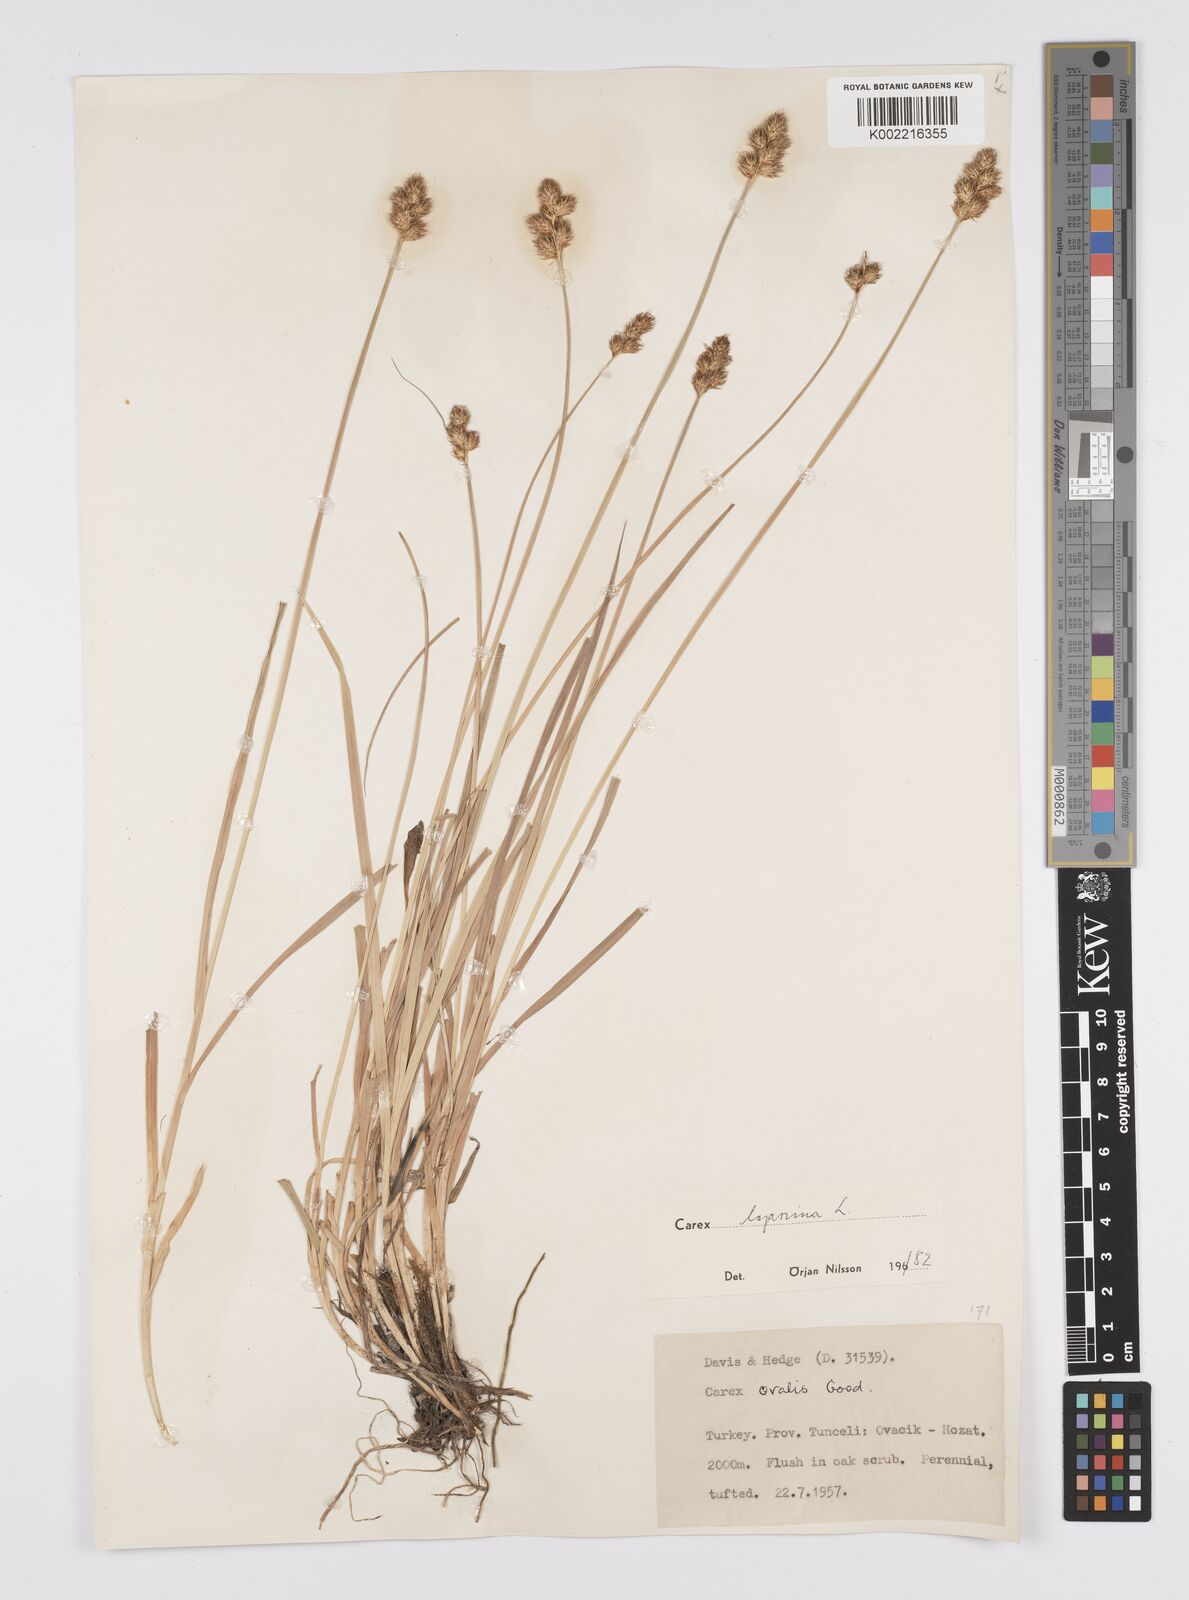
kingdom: Plantae
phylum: Tracheophyta
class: Liliopsida
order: Poales
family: Cyperaceae
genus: Carex
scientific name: Carex leporina
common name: Oval sedge
